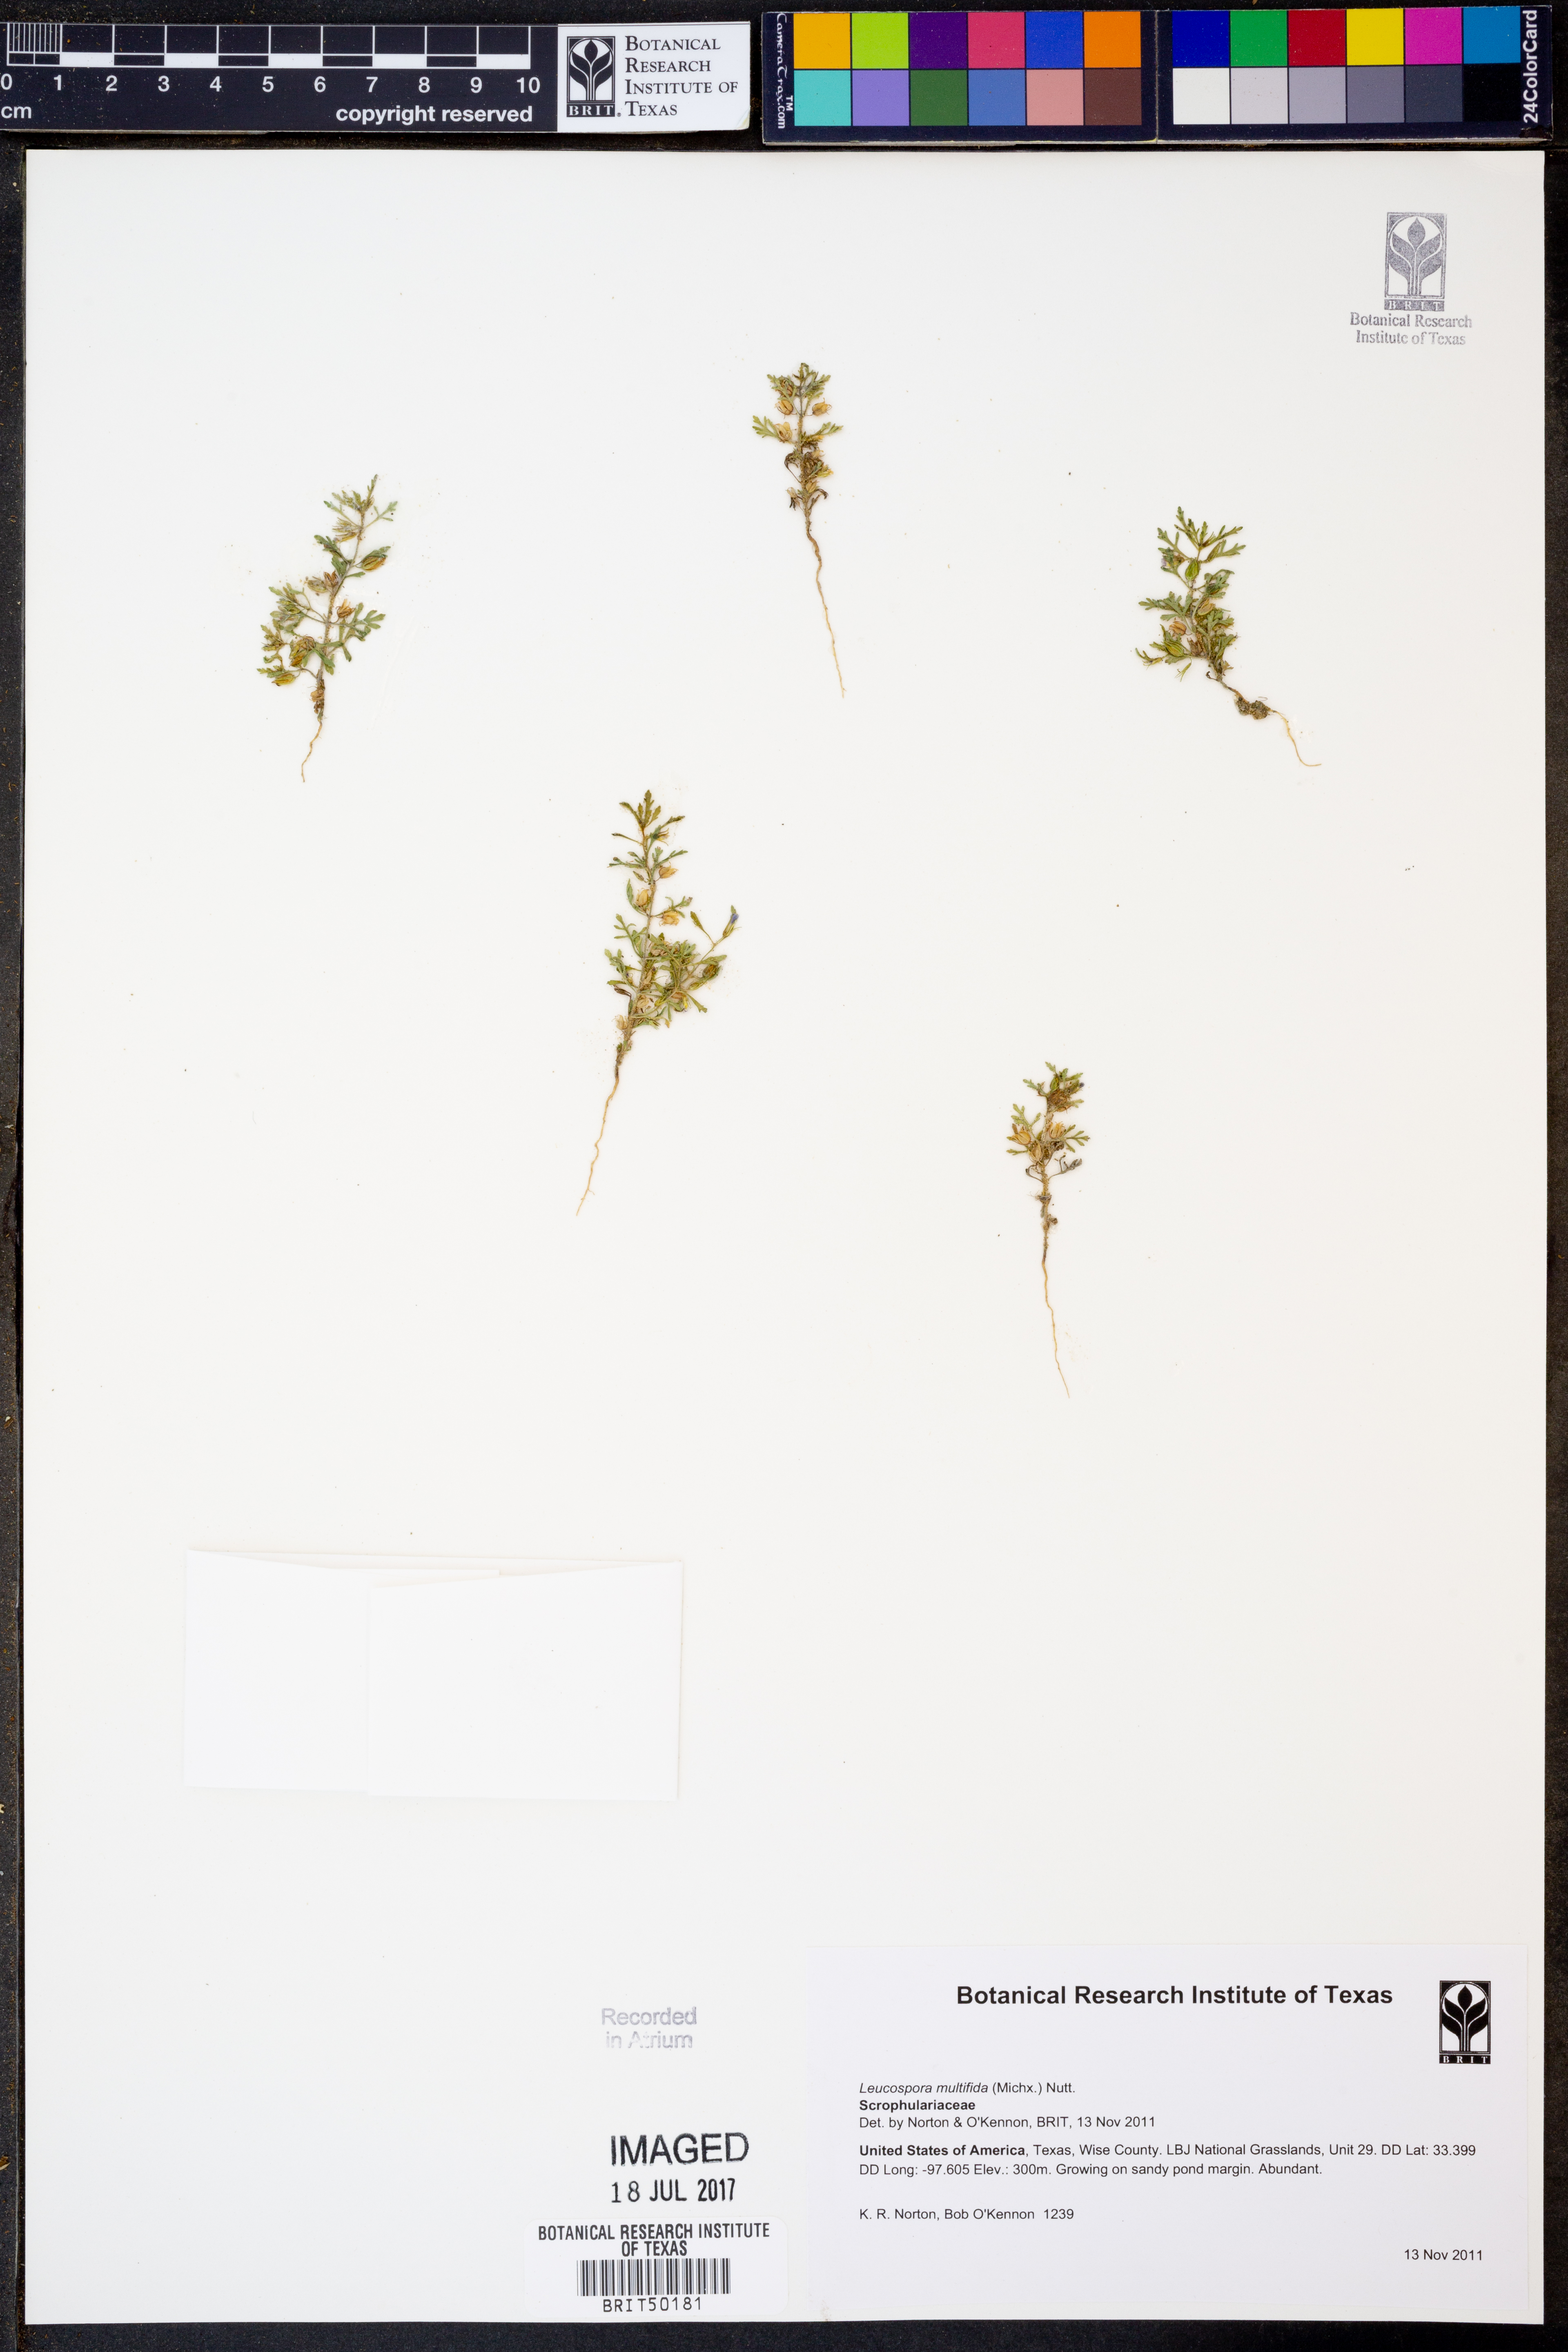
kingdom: Plantae
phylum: Tracheophyta
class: Magnoliopsida
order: Lamiales
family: Plantaginaceae
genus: Leucospora
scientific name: Leucospora multifida
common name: Narrow-leaf paleseed
